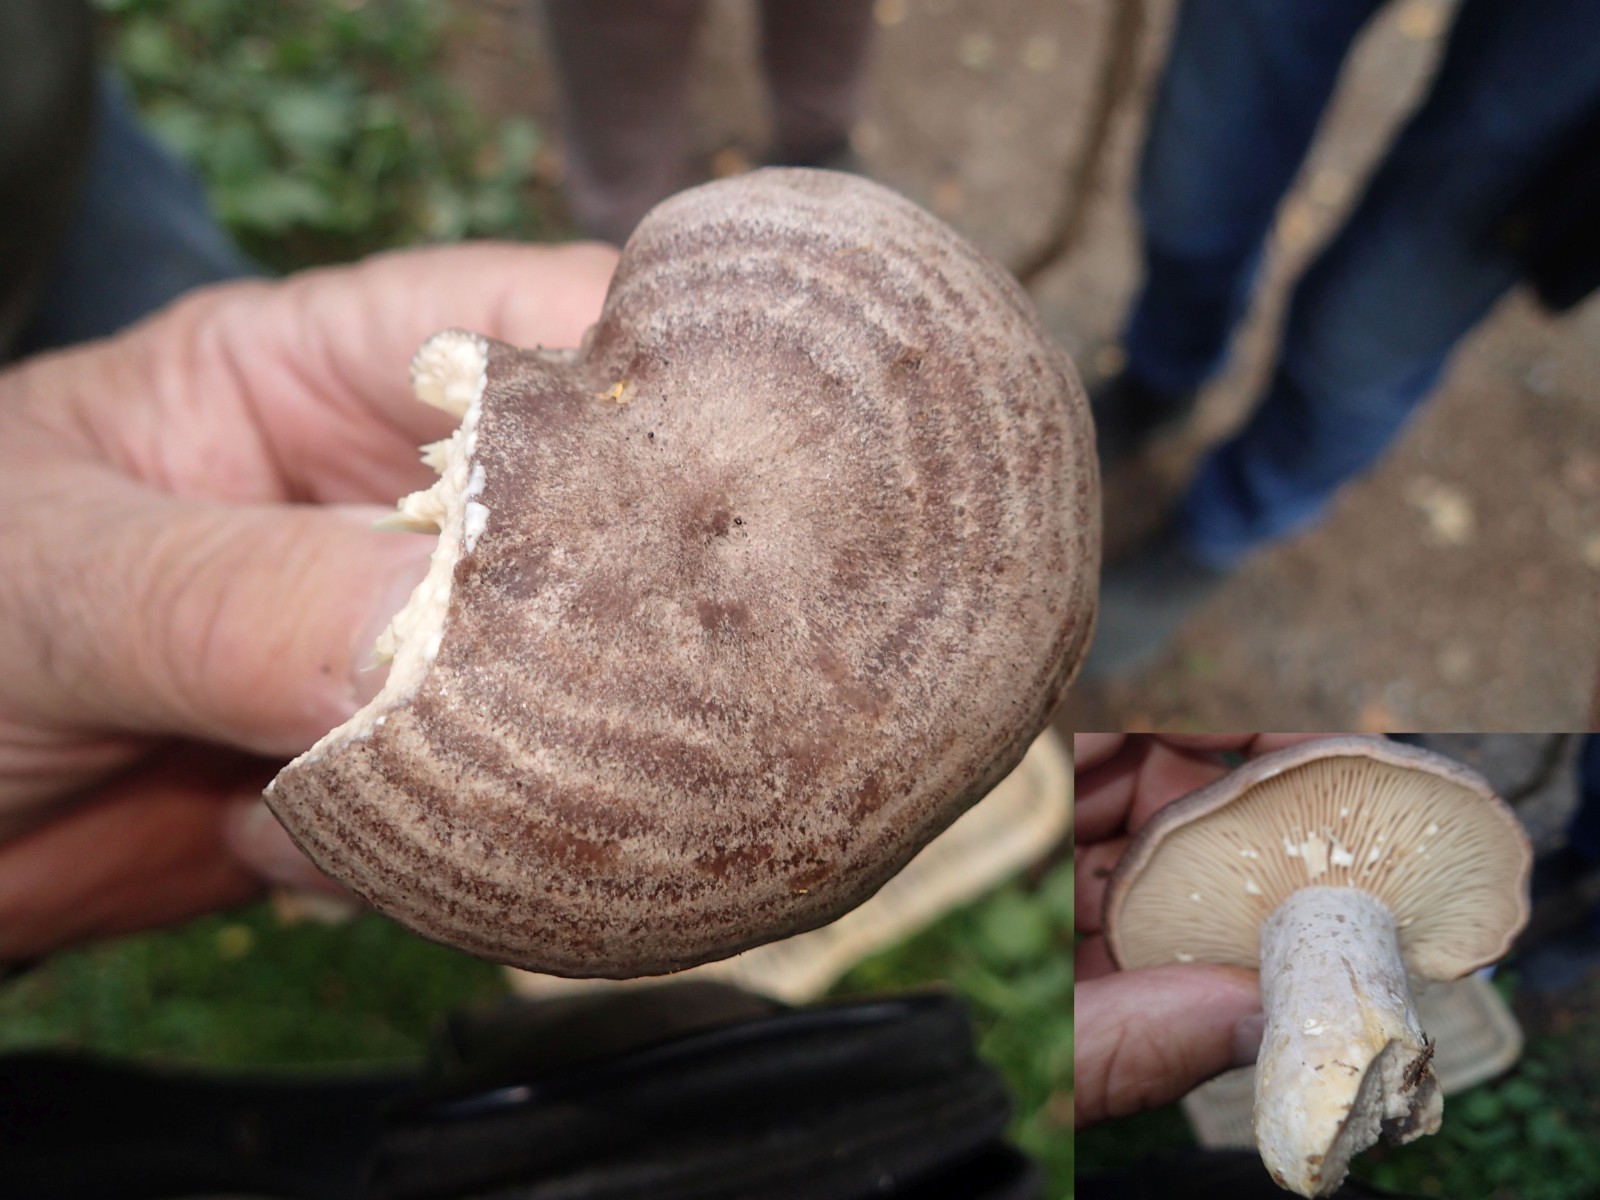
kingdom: Fungi
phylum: Basidiomycota
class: Agaricomycetes
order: Russulales
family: Russulaceae
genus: Lactarius
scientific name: Lactarius flexuosus
